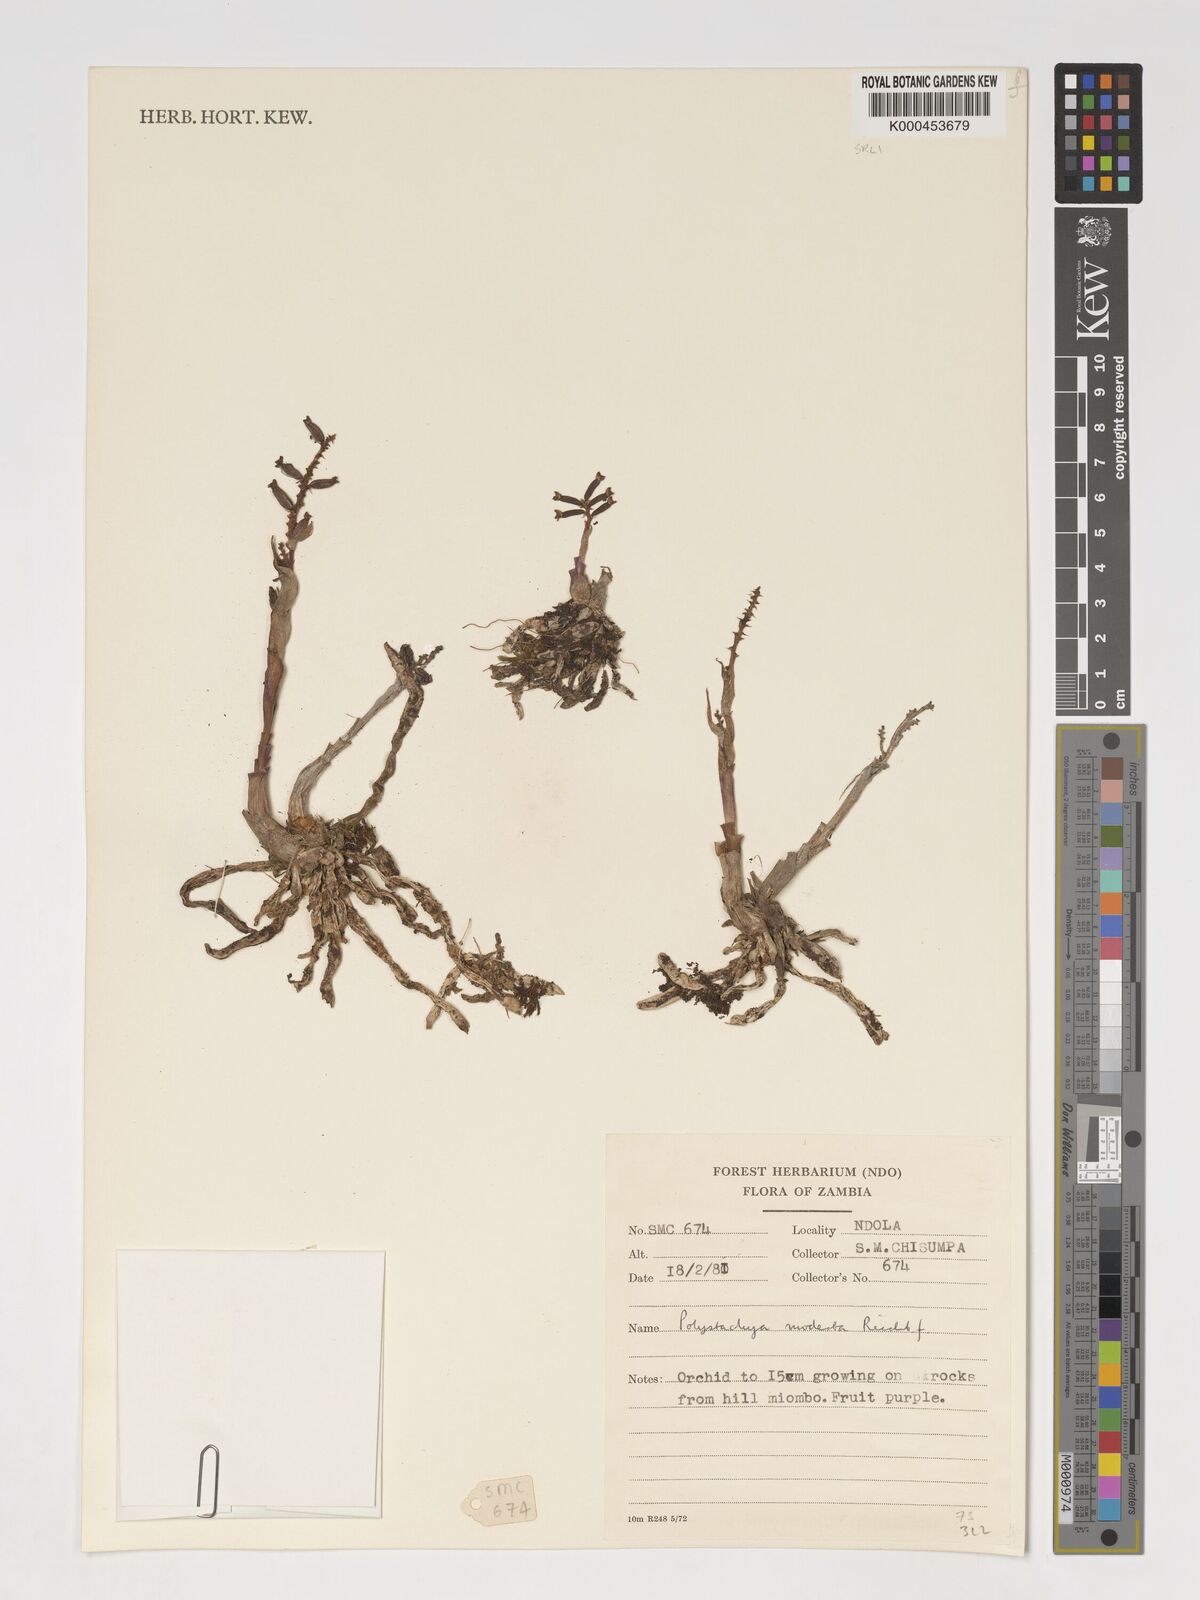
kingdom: Plantae
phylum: Tracheophyta
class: Liliopsida
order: Asparagales
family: Orchidaceae
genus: Polystachya
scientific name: Polystachya modesta
